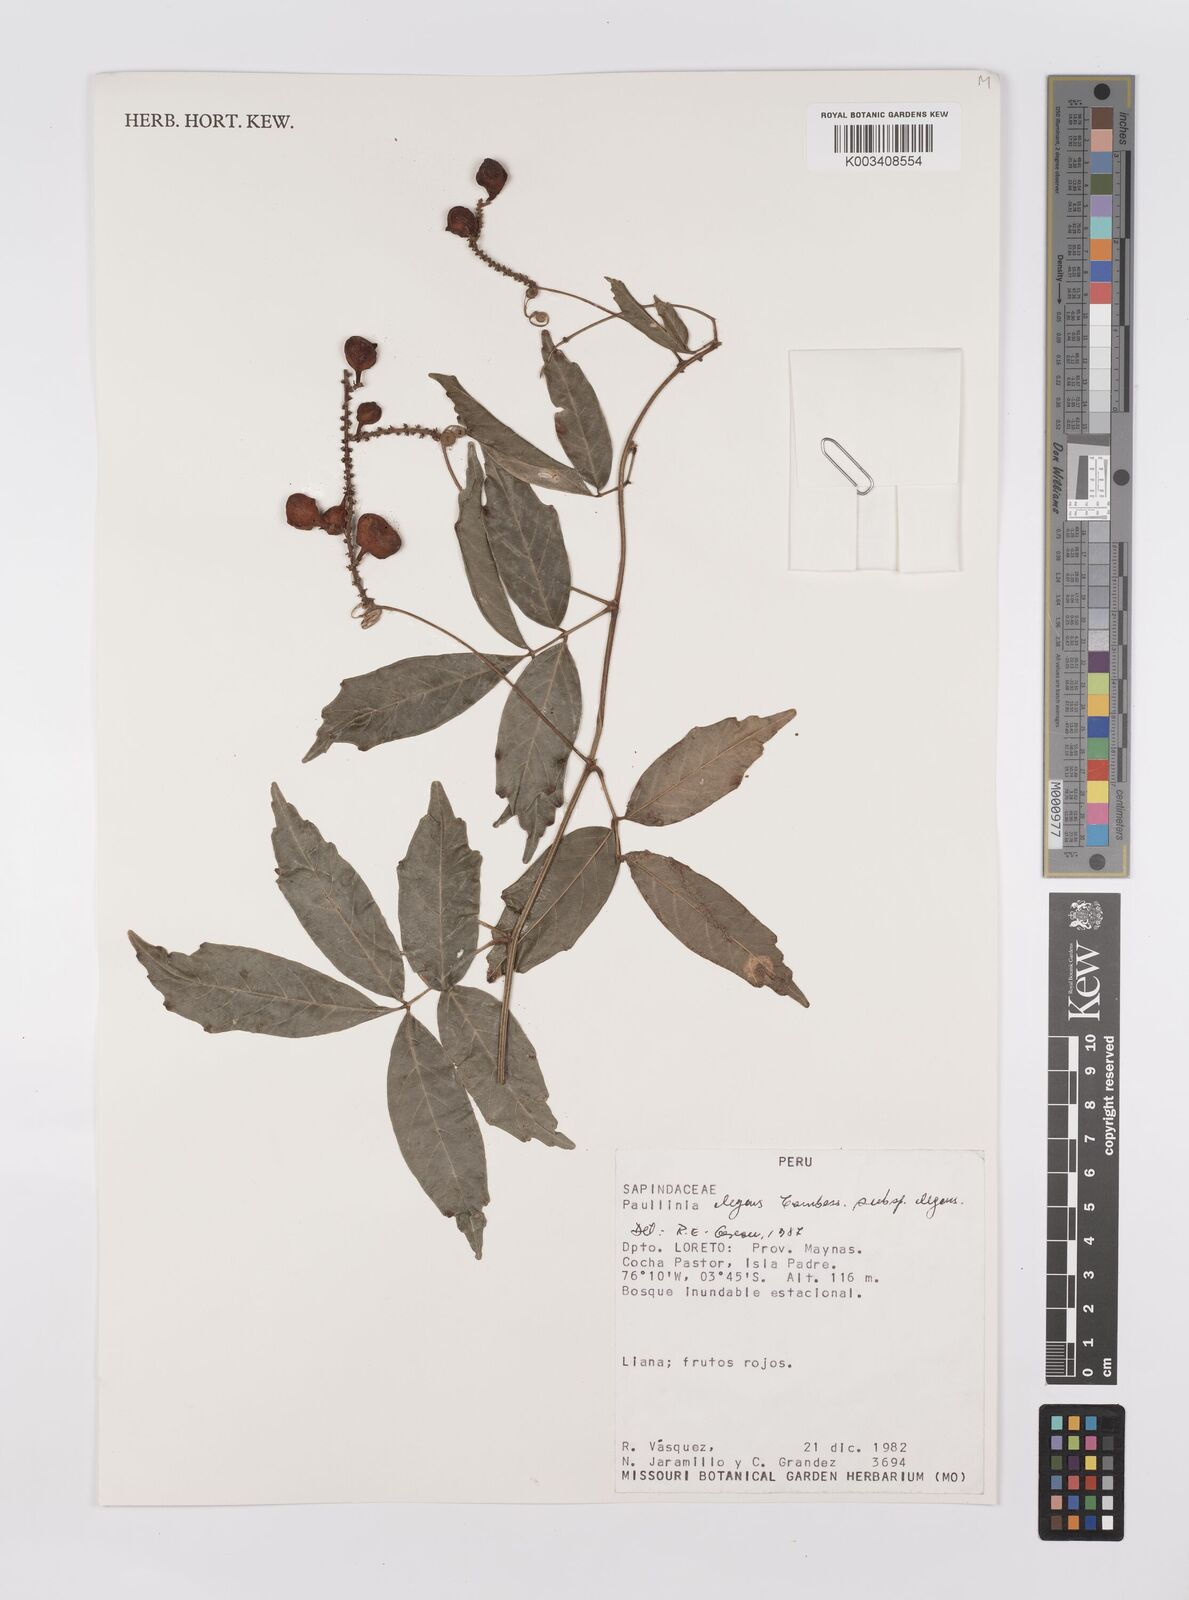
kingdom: Plantae
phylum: Tracheophyta
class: Magnoliopsida
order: Sapindales
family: Sapindaceae
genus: Paullinia
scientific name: Paullinia elegans
